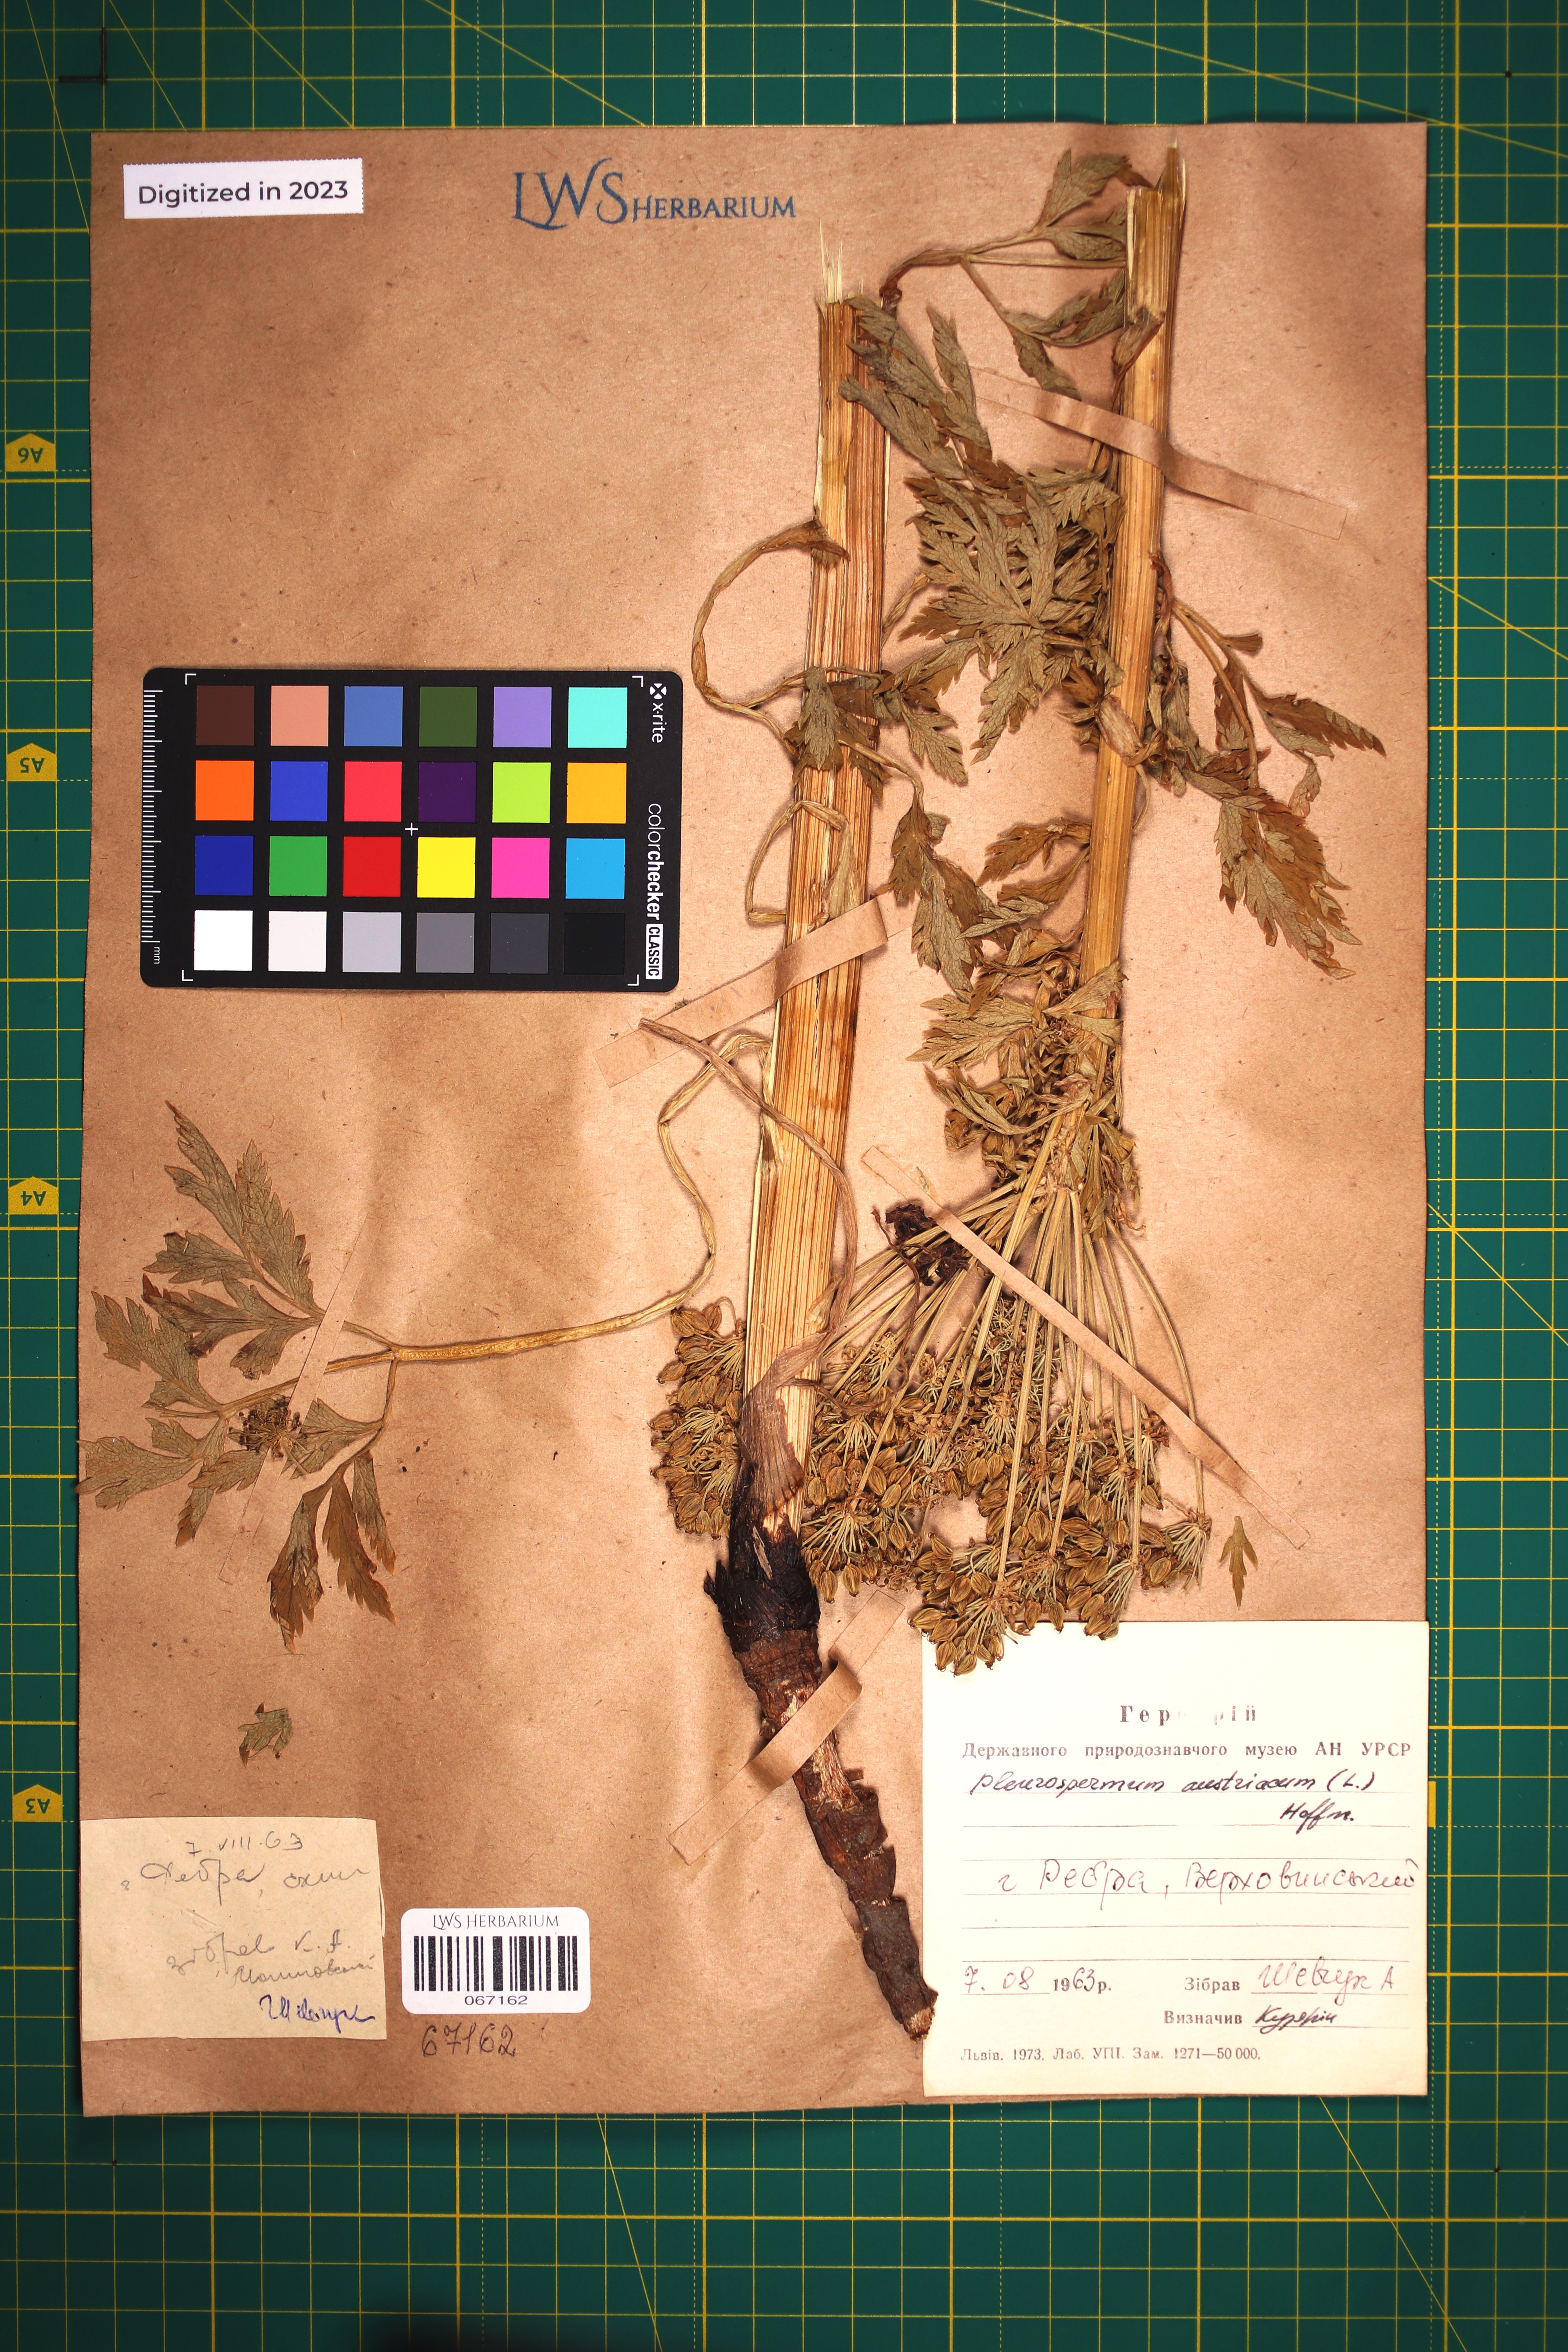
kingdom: Plantae
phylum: Tracheophyta
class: Magnoliopsida
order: Apiales
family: Apiaceae
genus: Pleurospermum
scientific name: Pleurospermum austriacum
